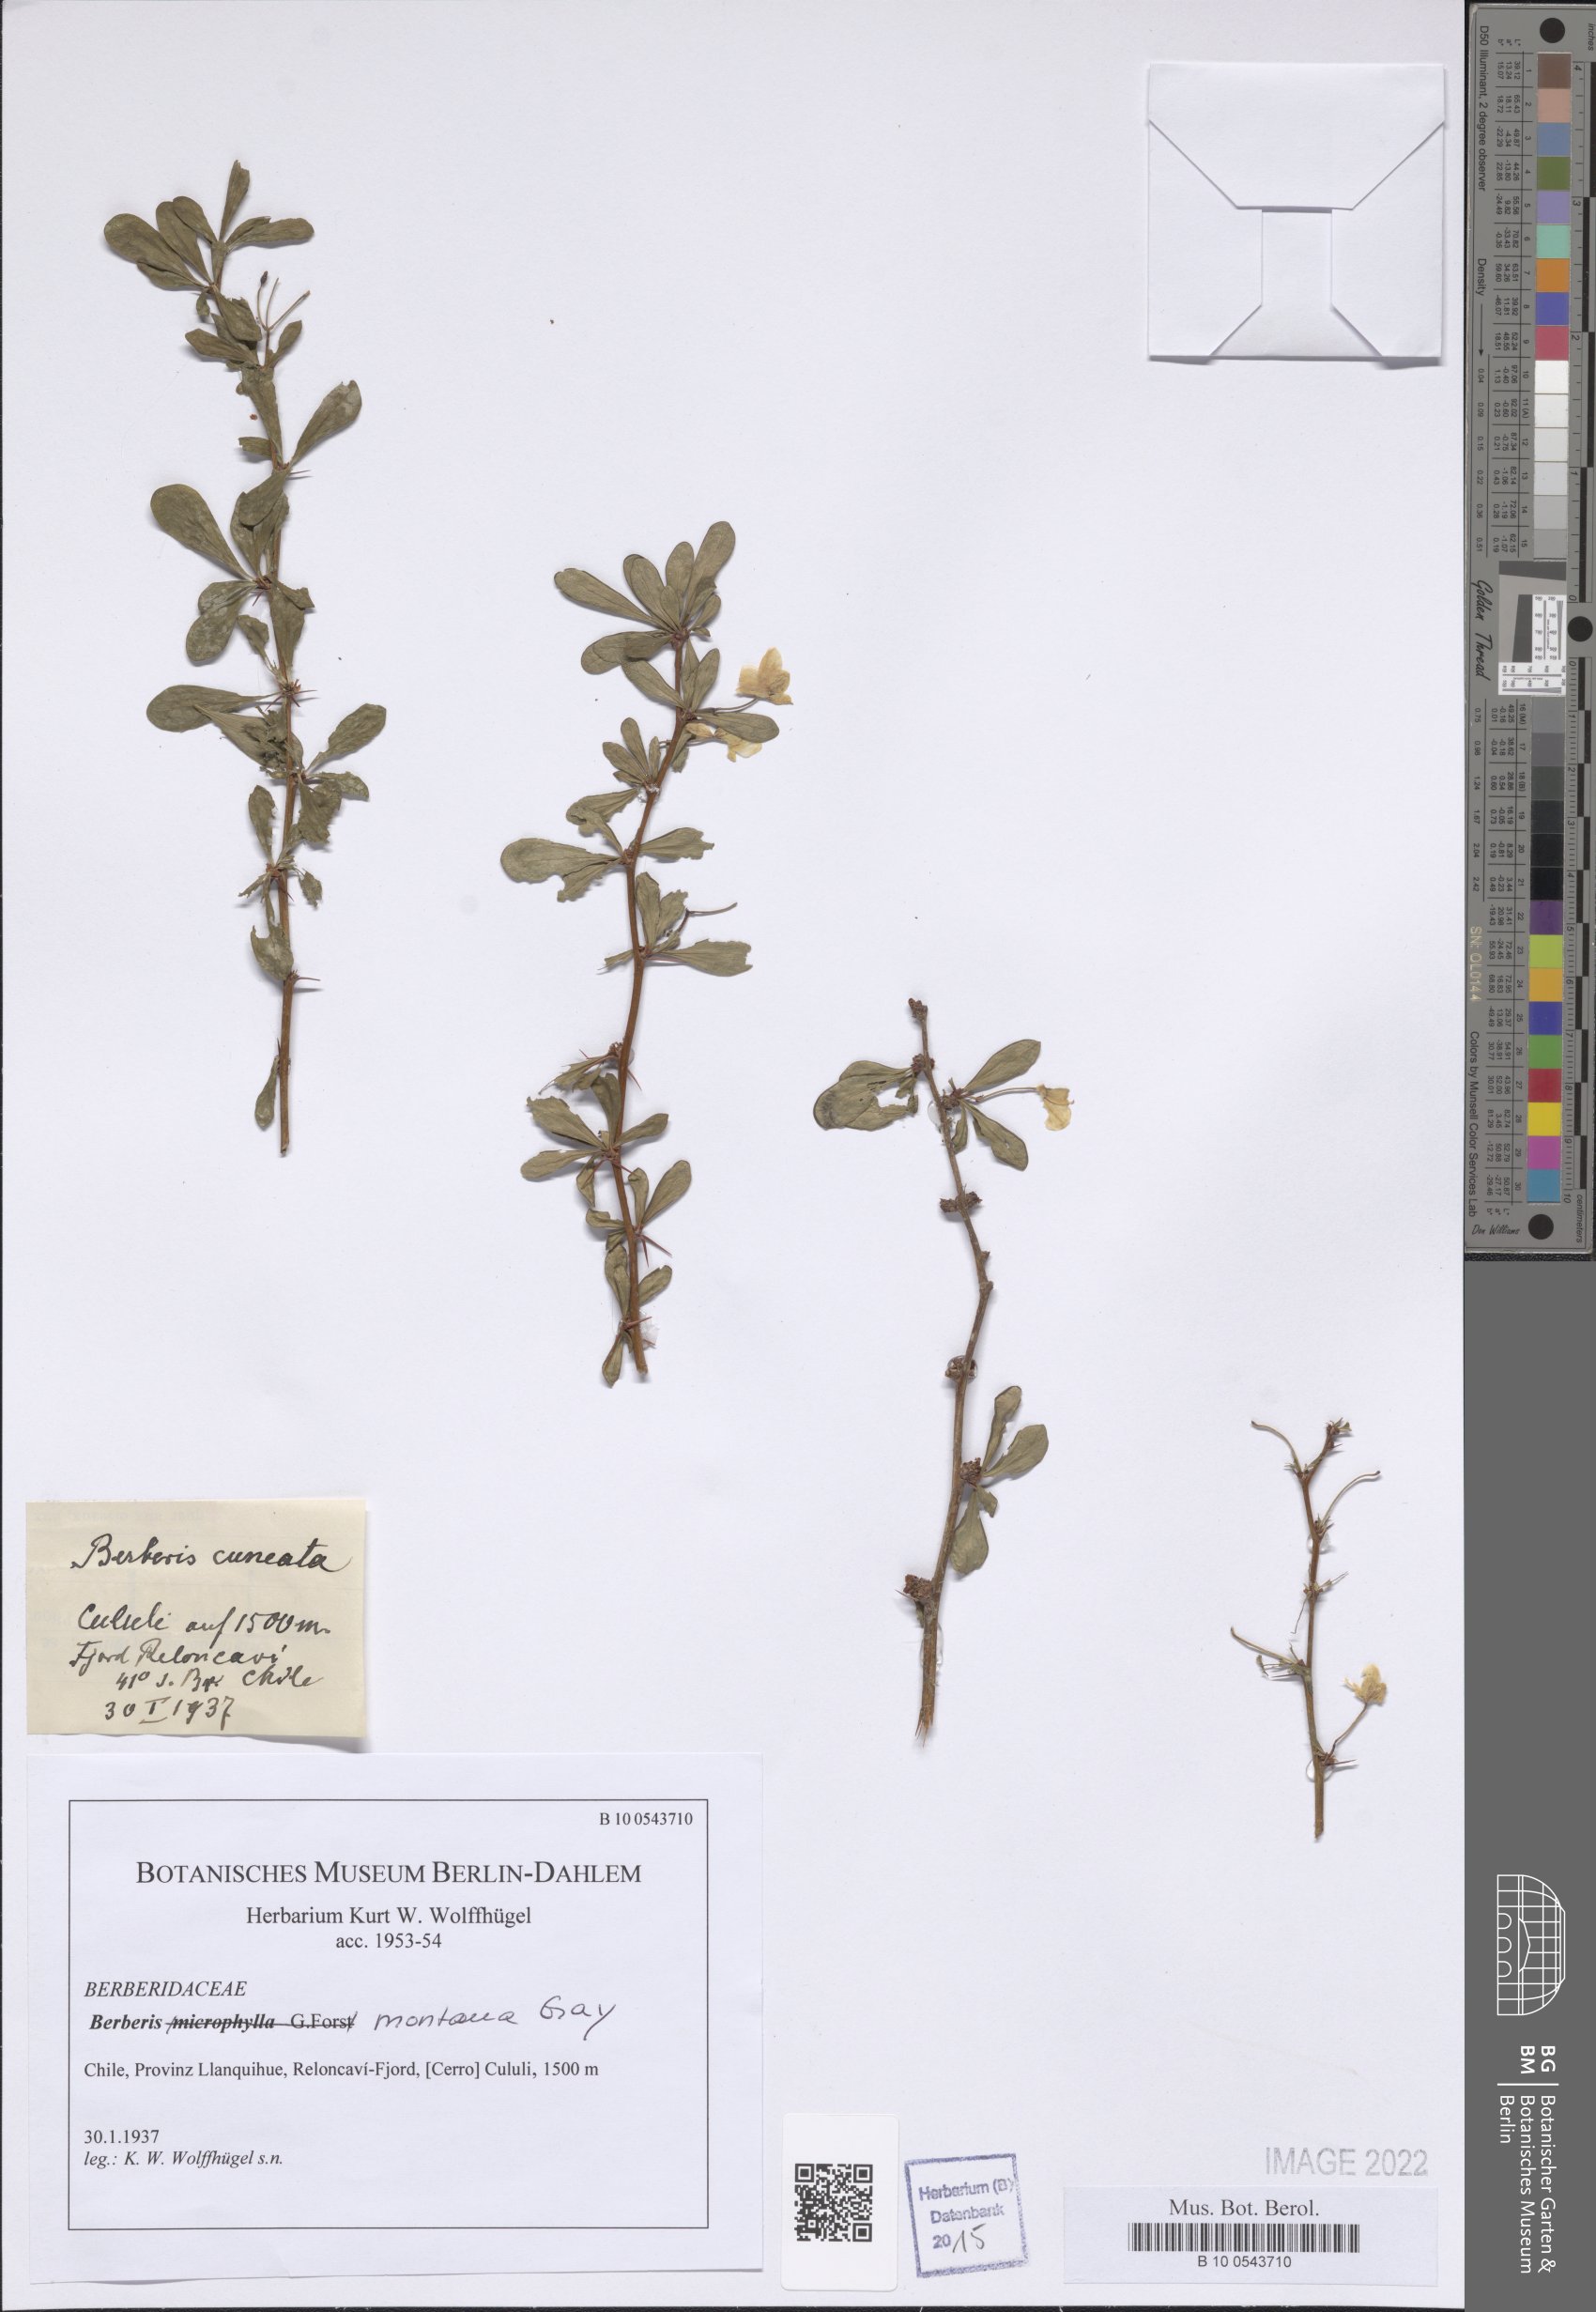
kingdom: Plantae
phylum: Tracheophyta
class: Magnoliopsida
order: Ranunculales
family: Berberidaceae
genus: Berberis
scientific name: Berberis montana
